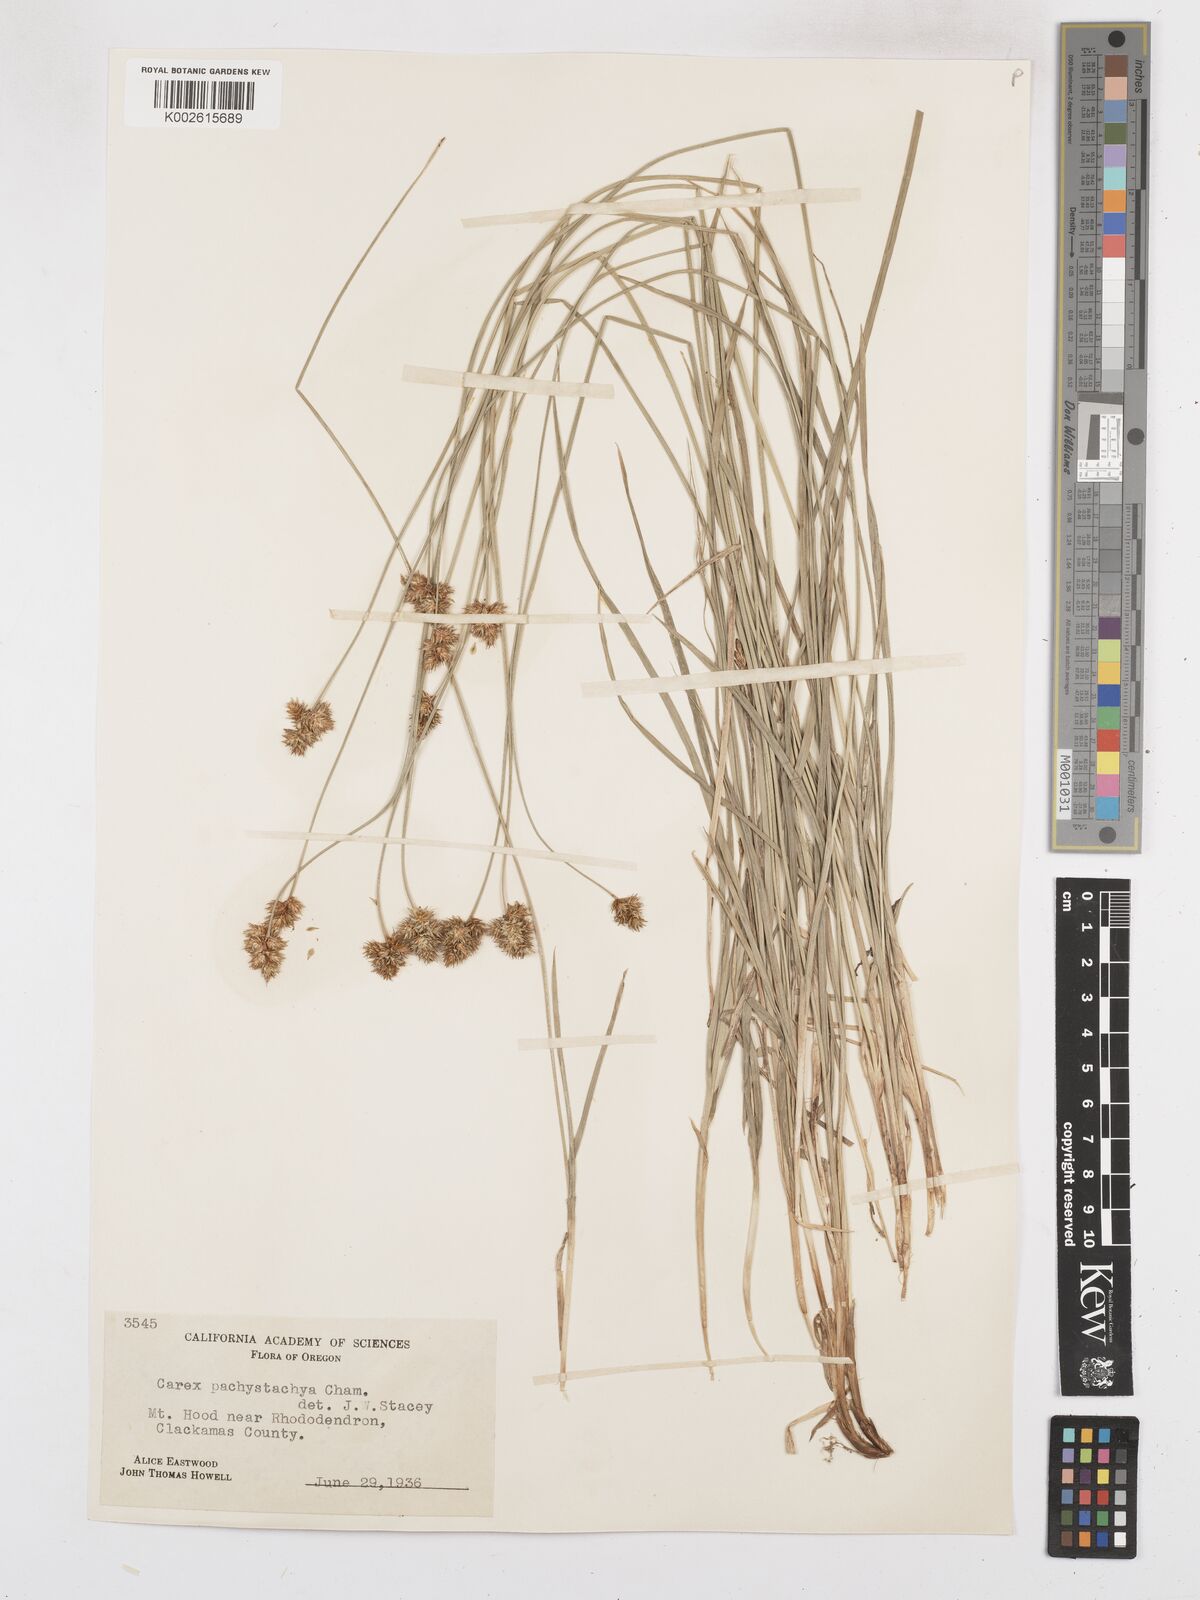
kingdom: Plantae
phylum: Tracheophyta
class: Liliopsida
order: Poales
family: Cyperaceae
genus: Carex
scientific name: Carex pachystachya
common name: Chamisso's sedge
